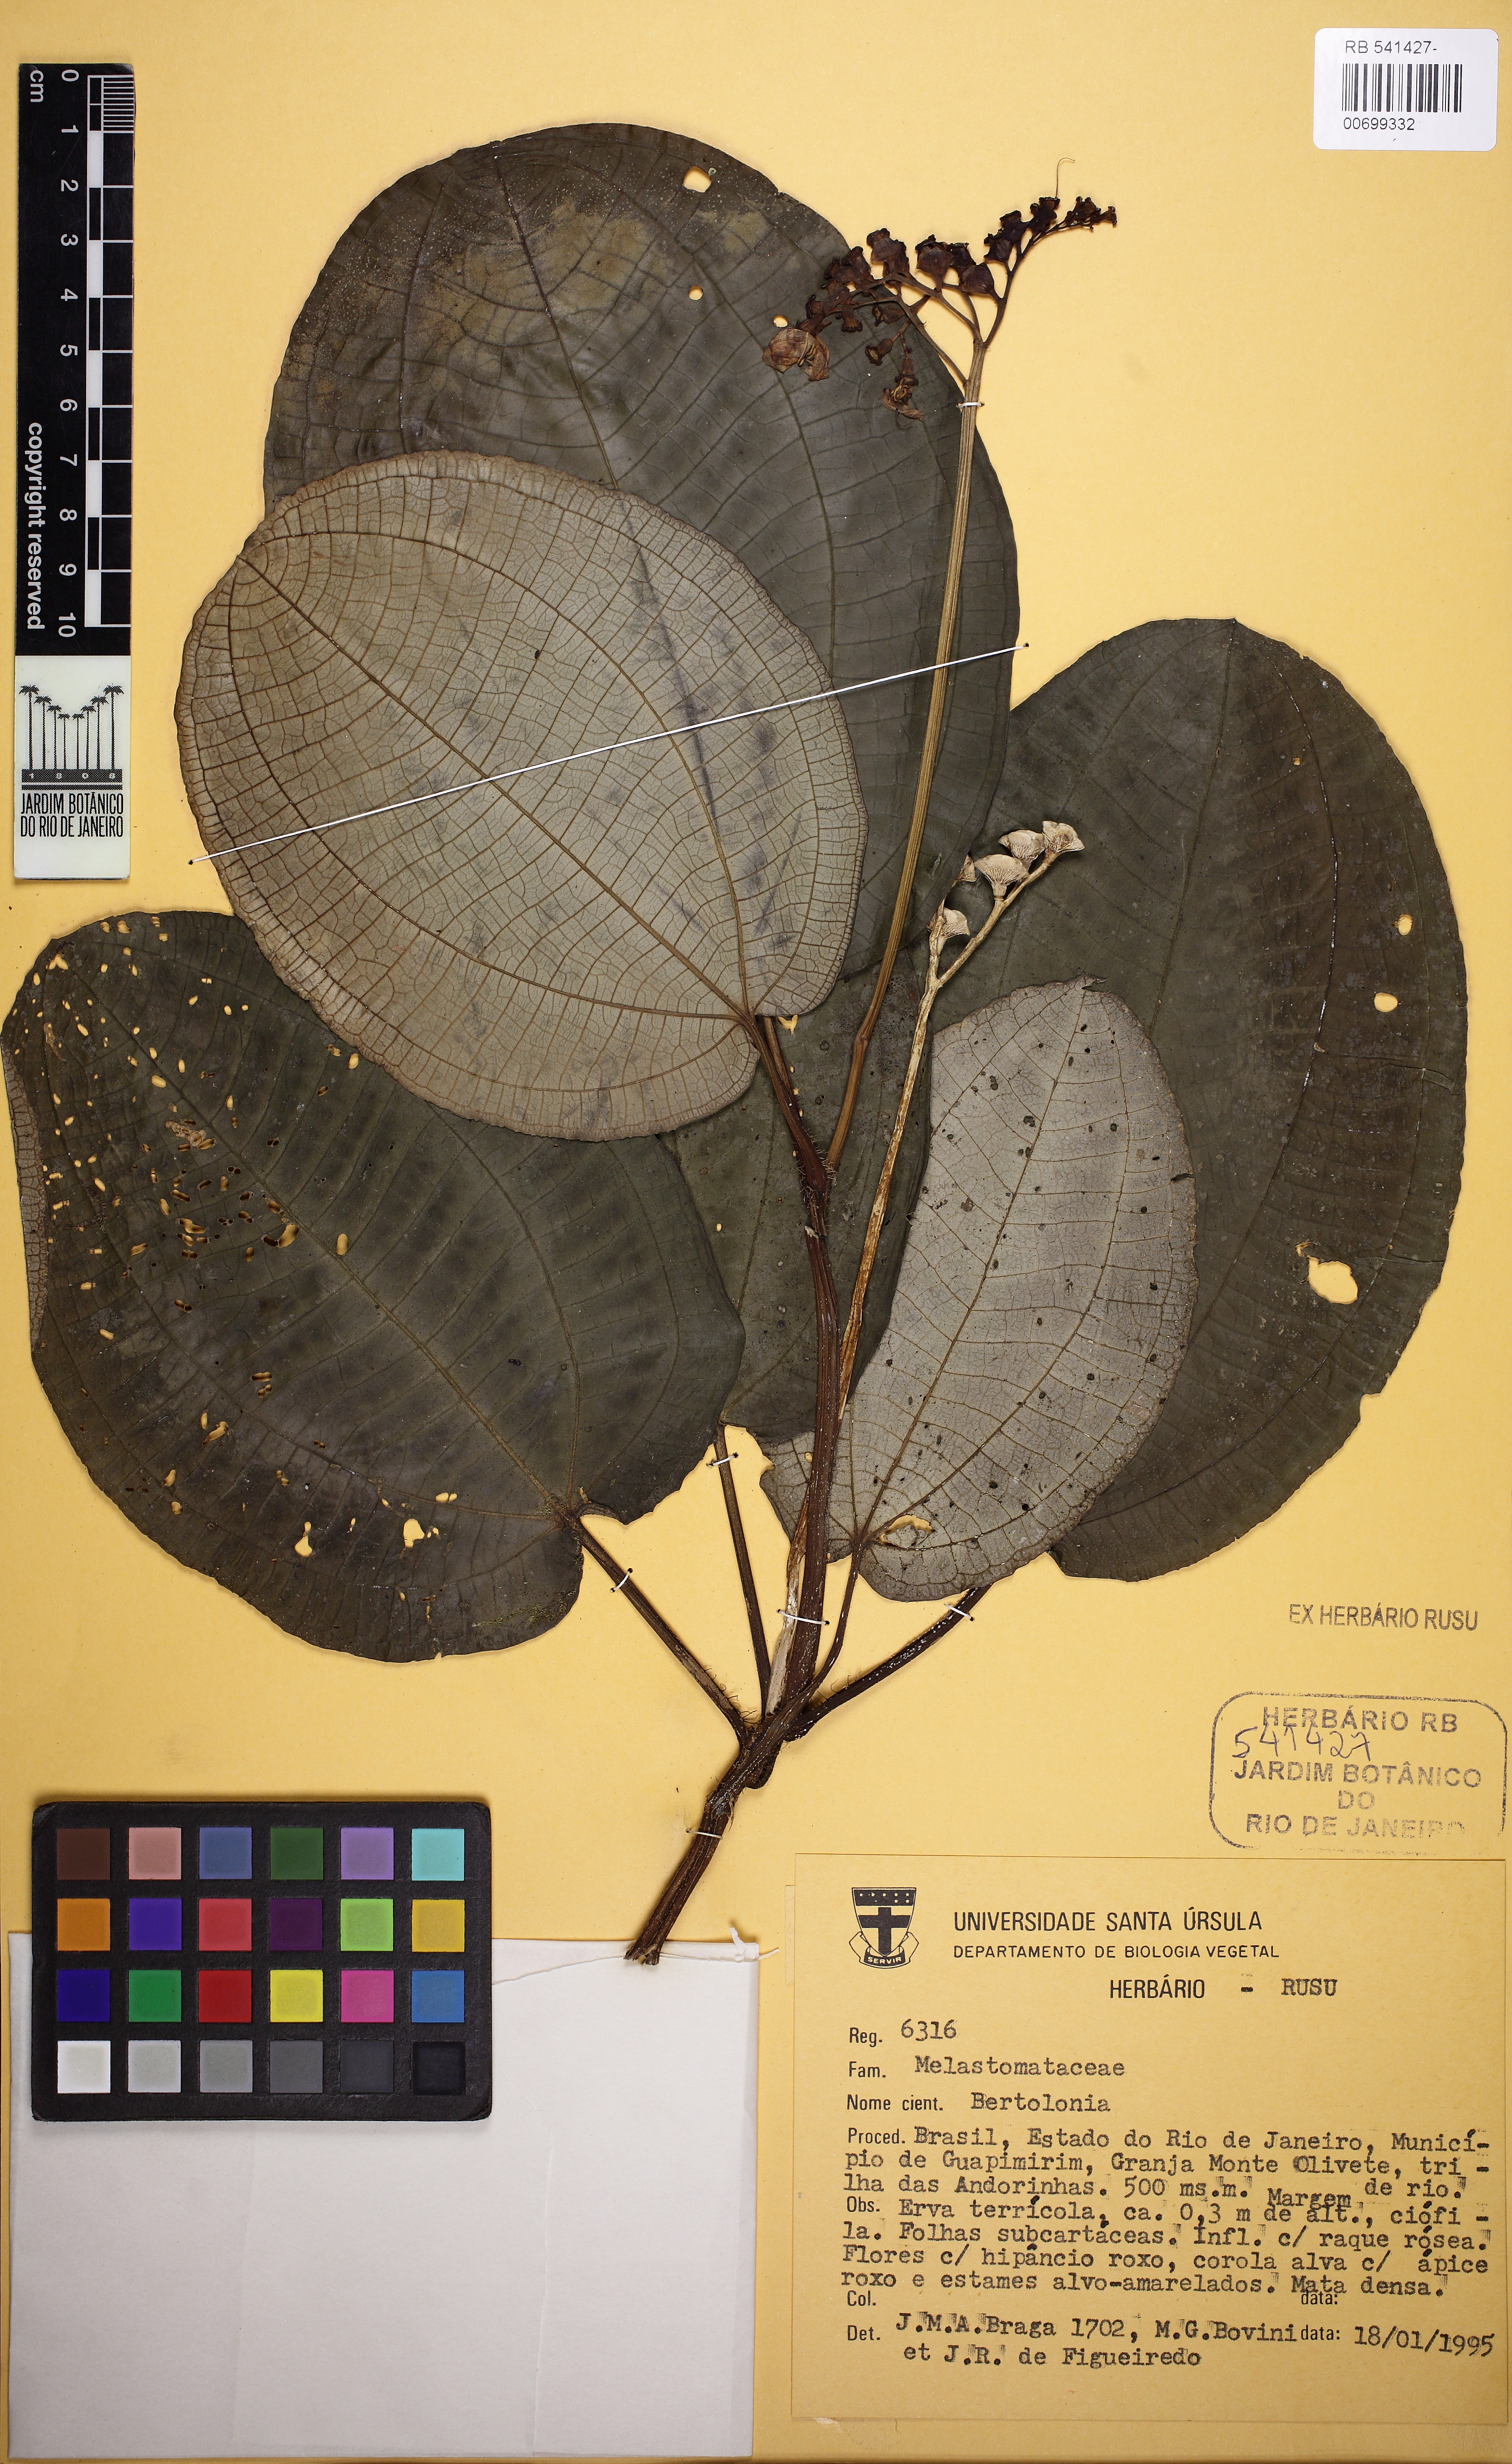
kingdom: Plantae
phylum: Tracheophyta
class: Magnoliopsida
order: Myrtales
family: Melastomataceae
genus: Bertolonia
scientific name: Bertolonia
